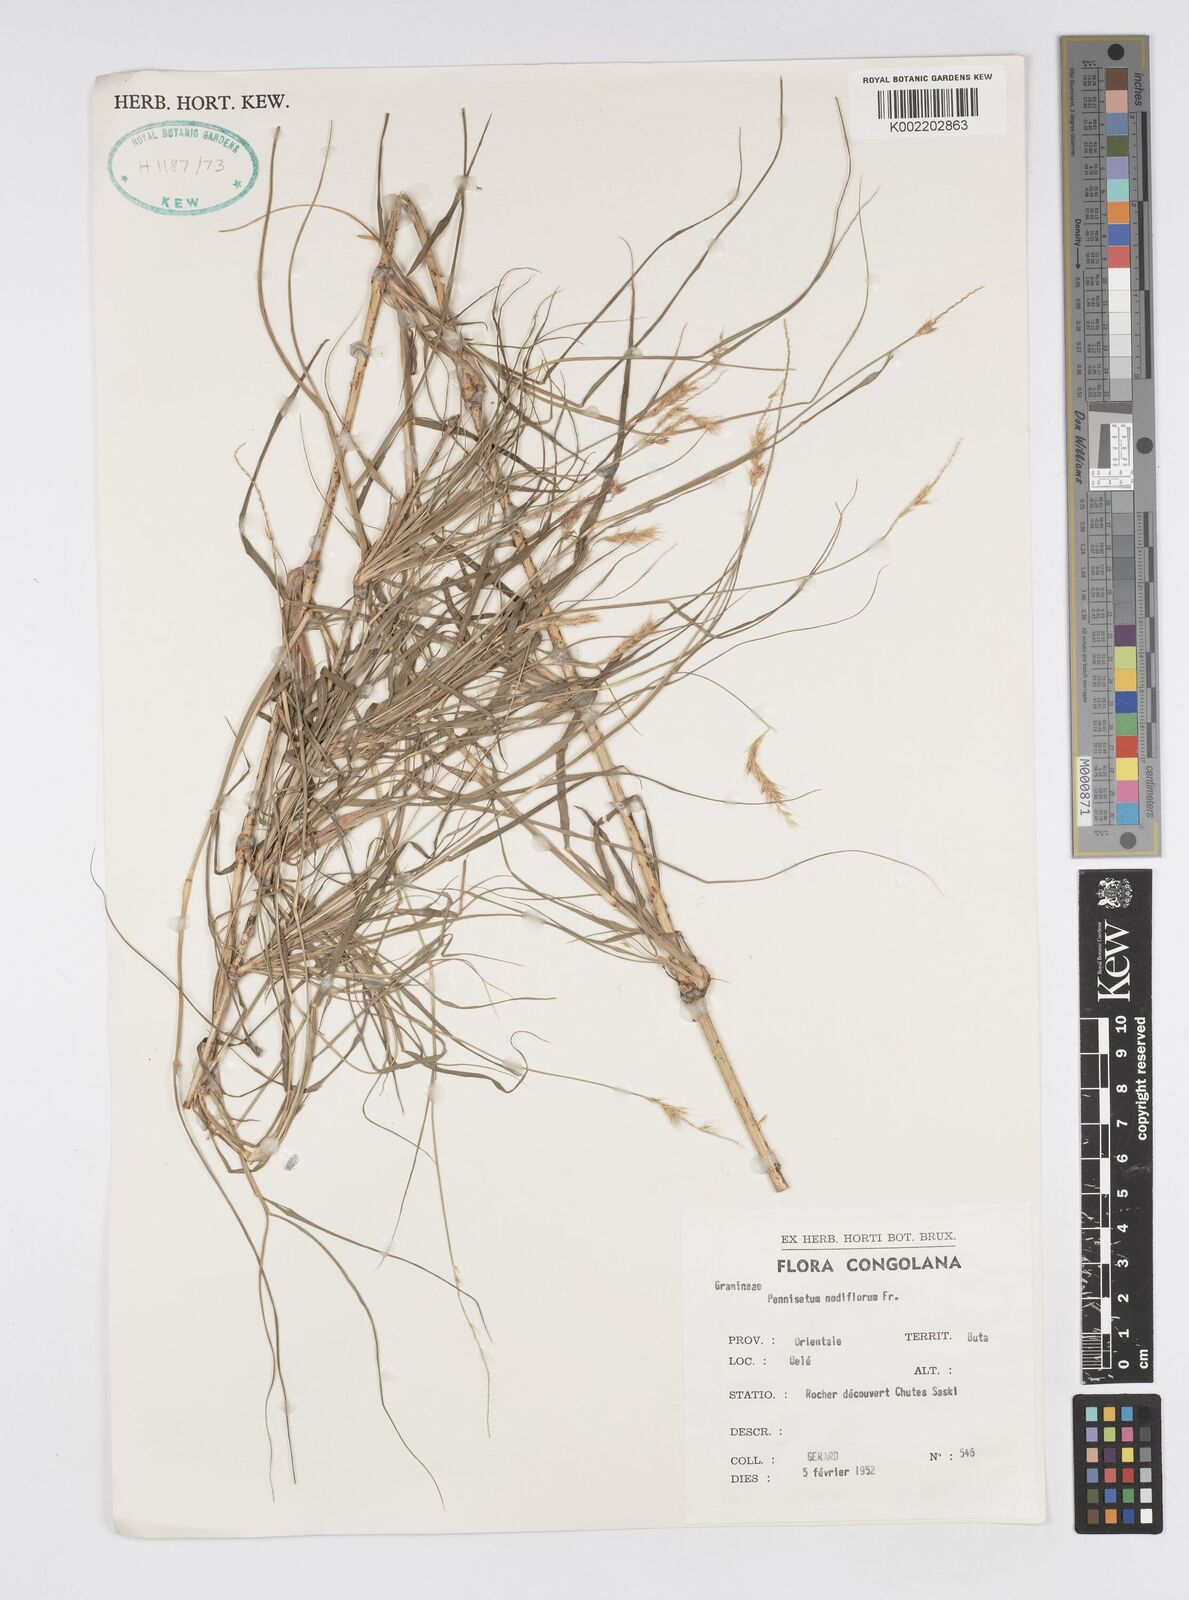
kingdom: Plantae
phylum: Tracheophyta
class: Liliopsida
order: Poales
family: Poaceae
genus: Cenchrus
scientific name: Cenchrus nodiflorus
